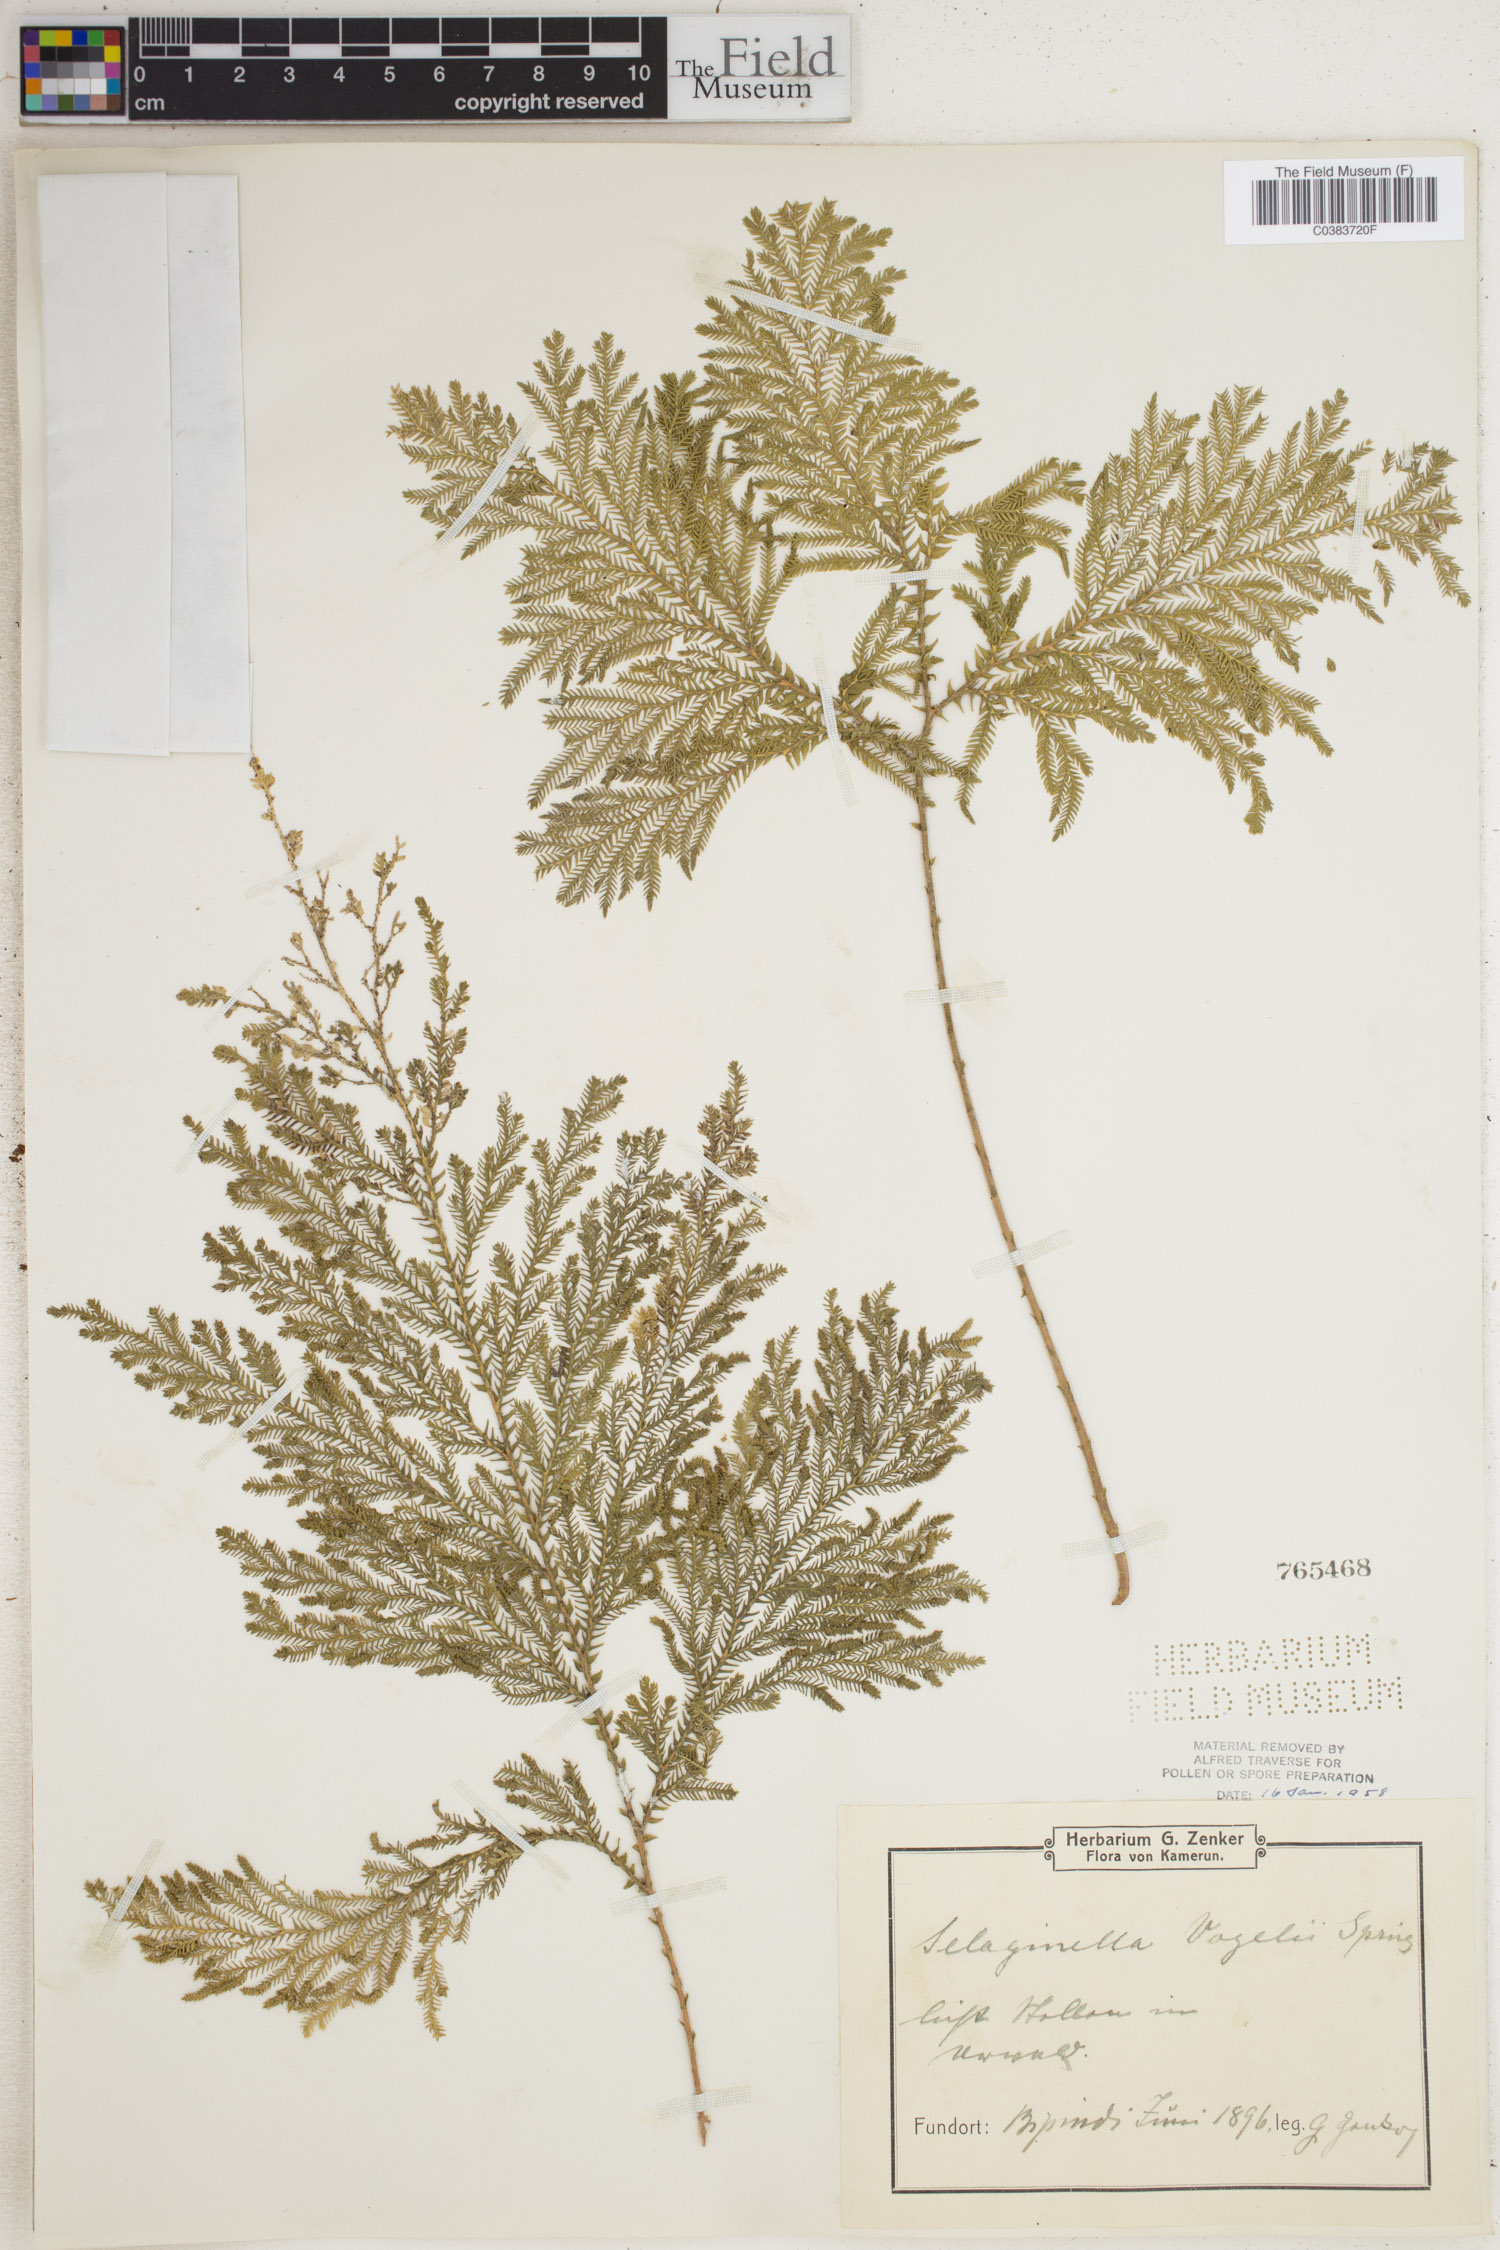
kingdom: Plantae
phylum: Tracheophyta
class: Lycopodiopsida
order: Selaginellales
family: Selaginellaceae
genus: Selaginella
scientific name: Selaginella vogelii
